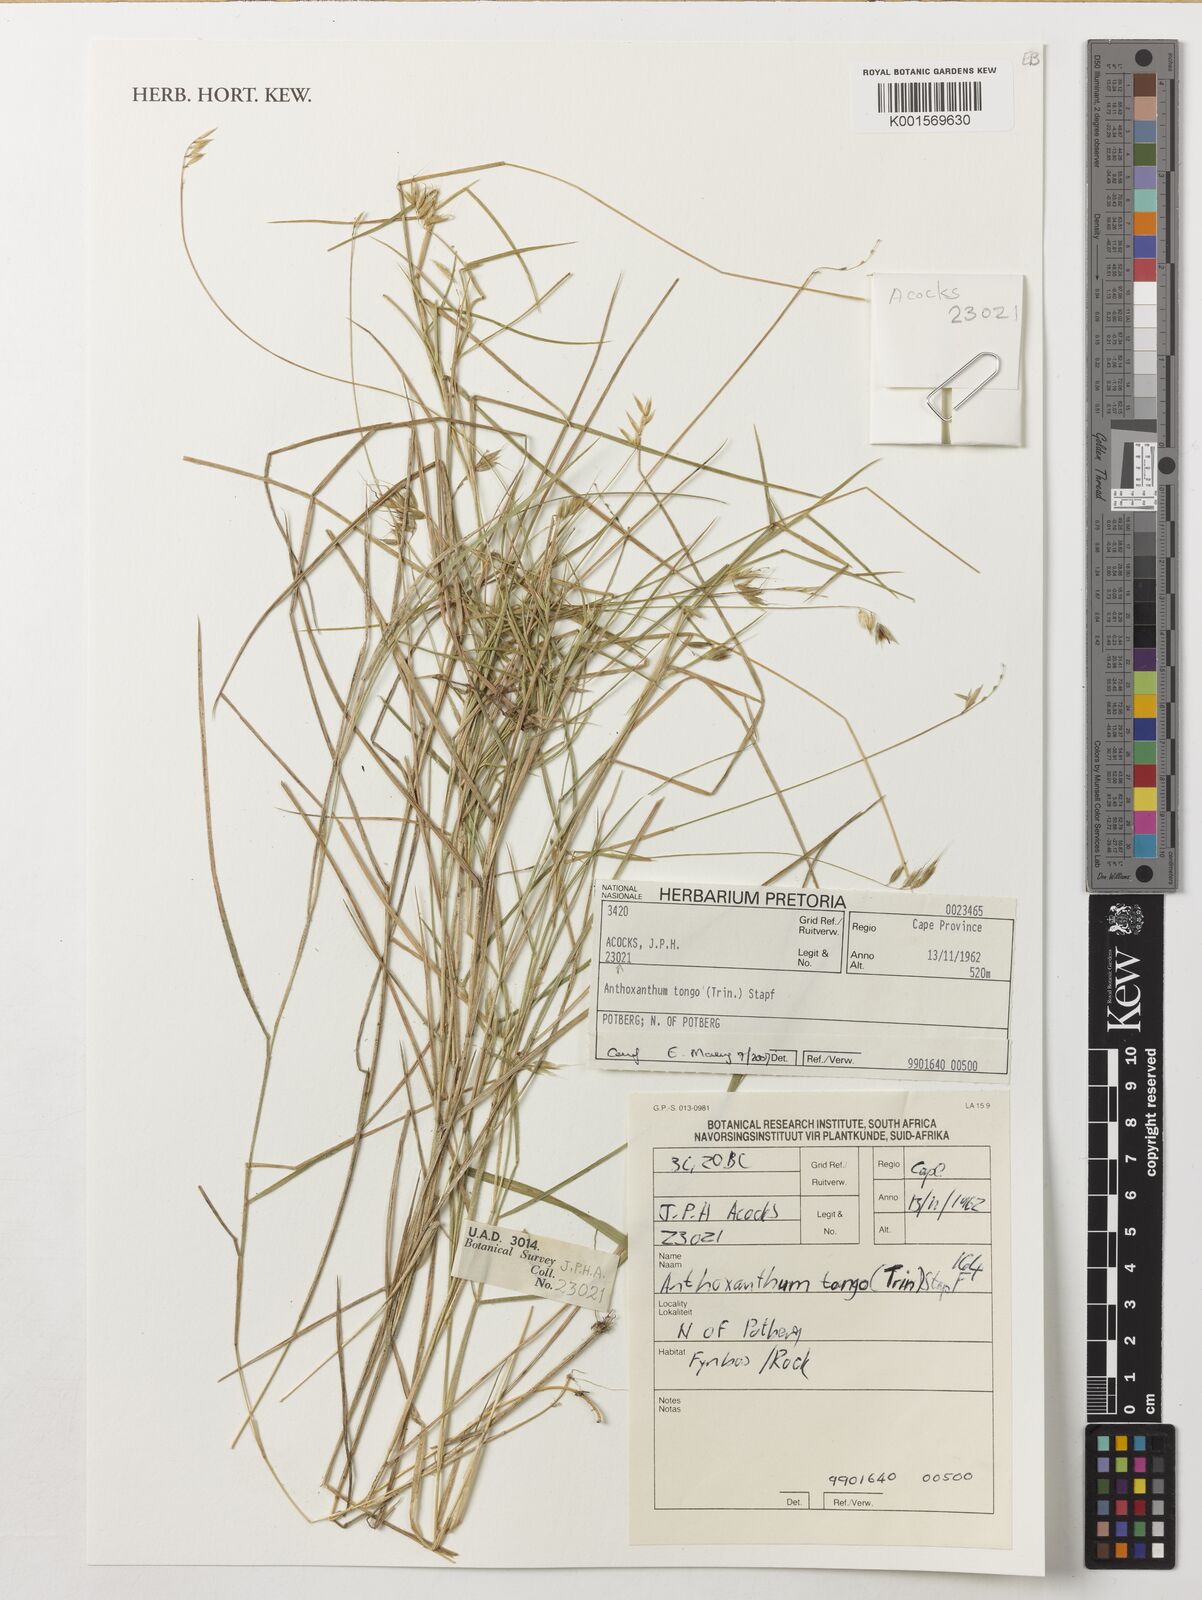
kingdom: Plantae
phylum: Tracheophyta
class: Liliopsida
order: Poales
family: Poaceae
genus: Anthoxanthum
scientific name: Anthoxanthum tongo
